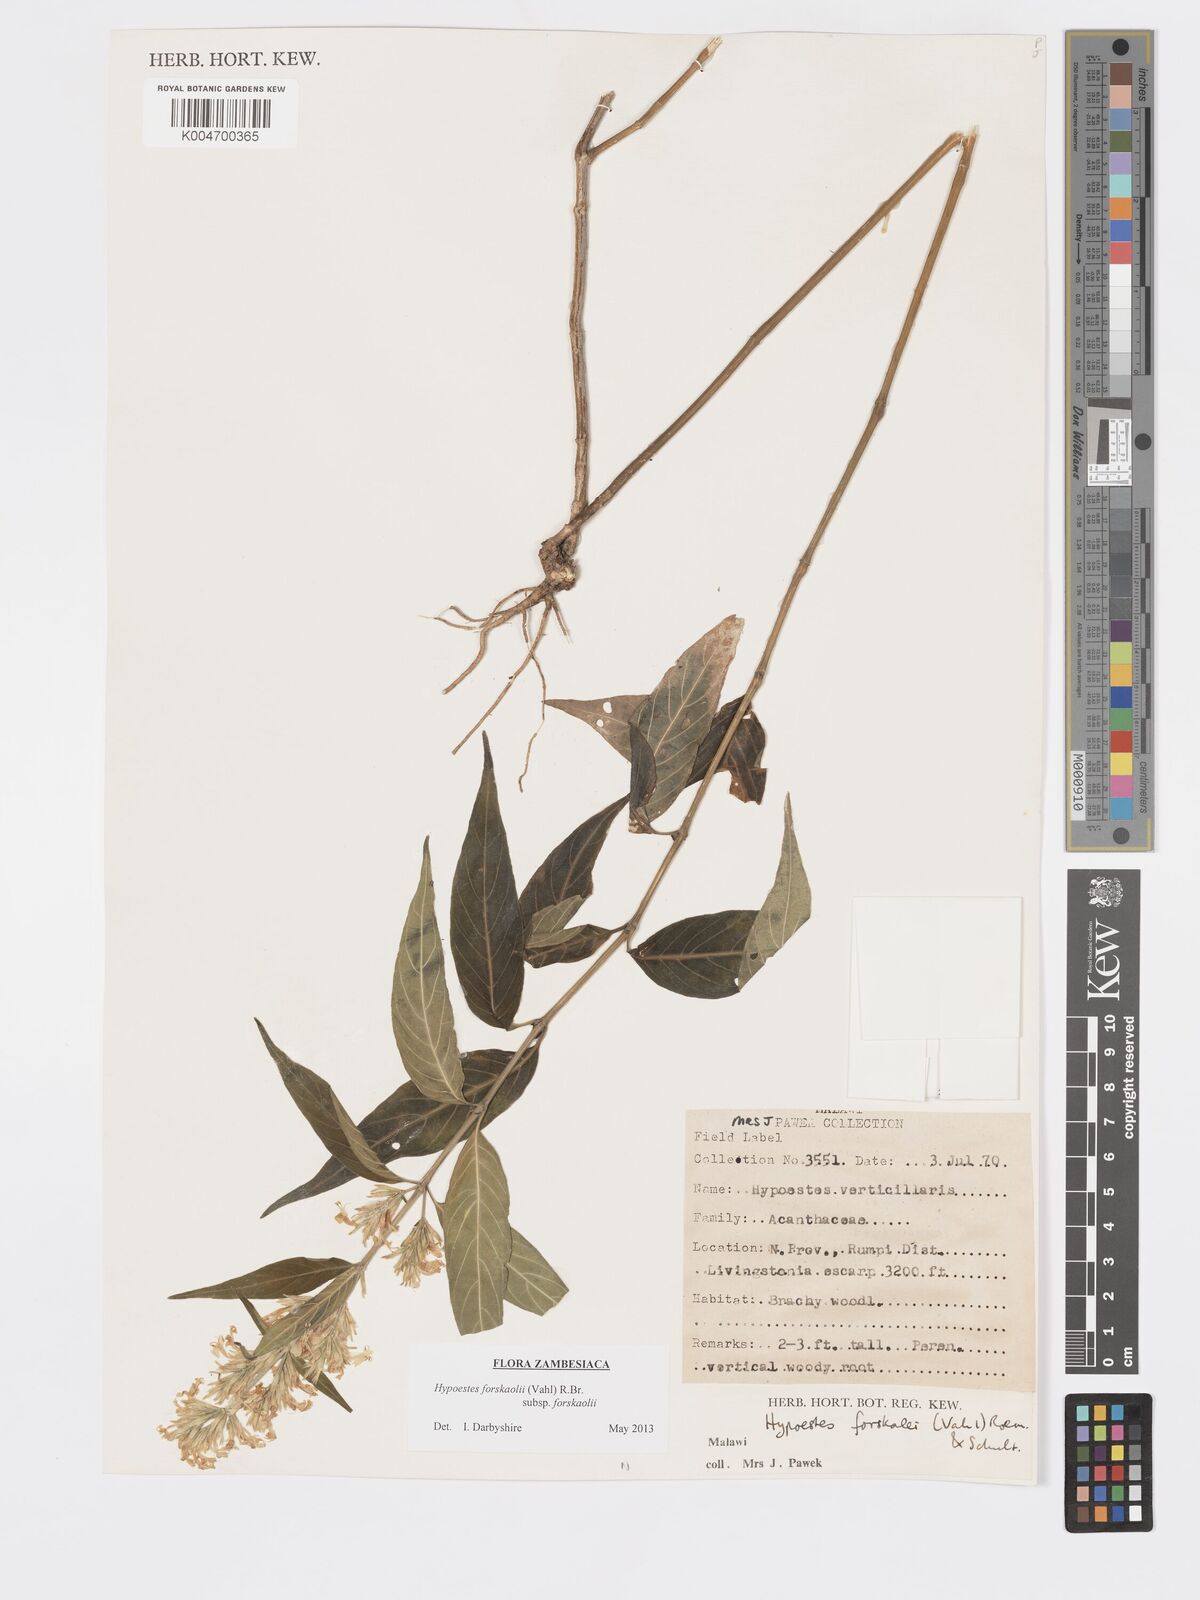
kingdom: Plantae
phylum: Tracheophyta
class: Magnoliopsida
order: Lamiales
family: Acanthaceae
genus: Hypoestes
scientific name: Hypoestes forskaolii
